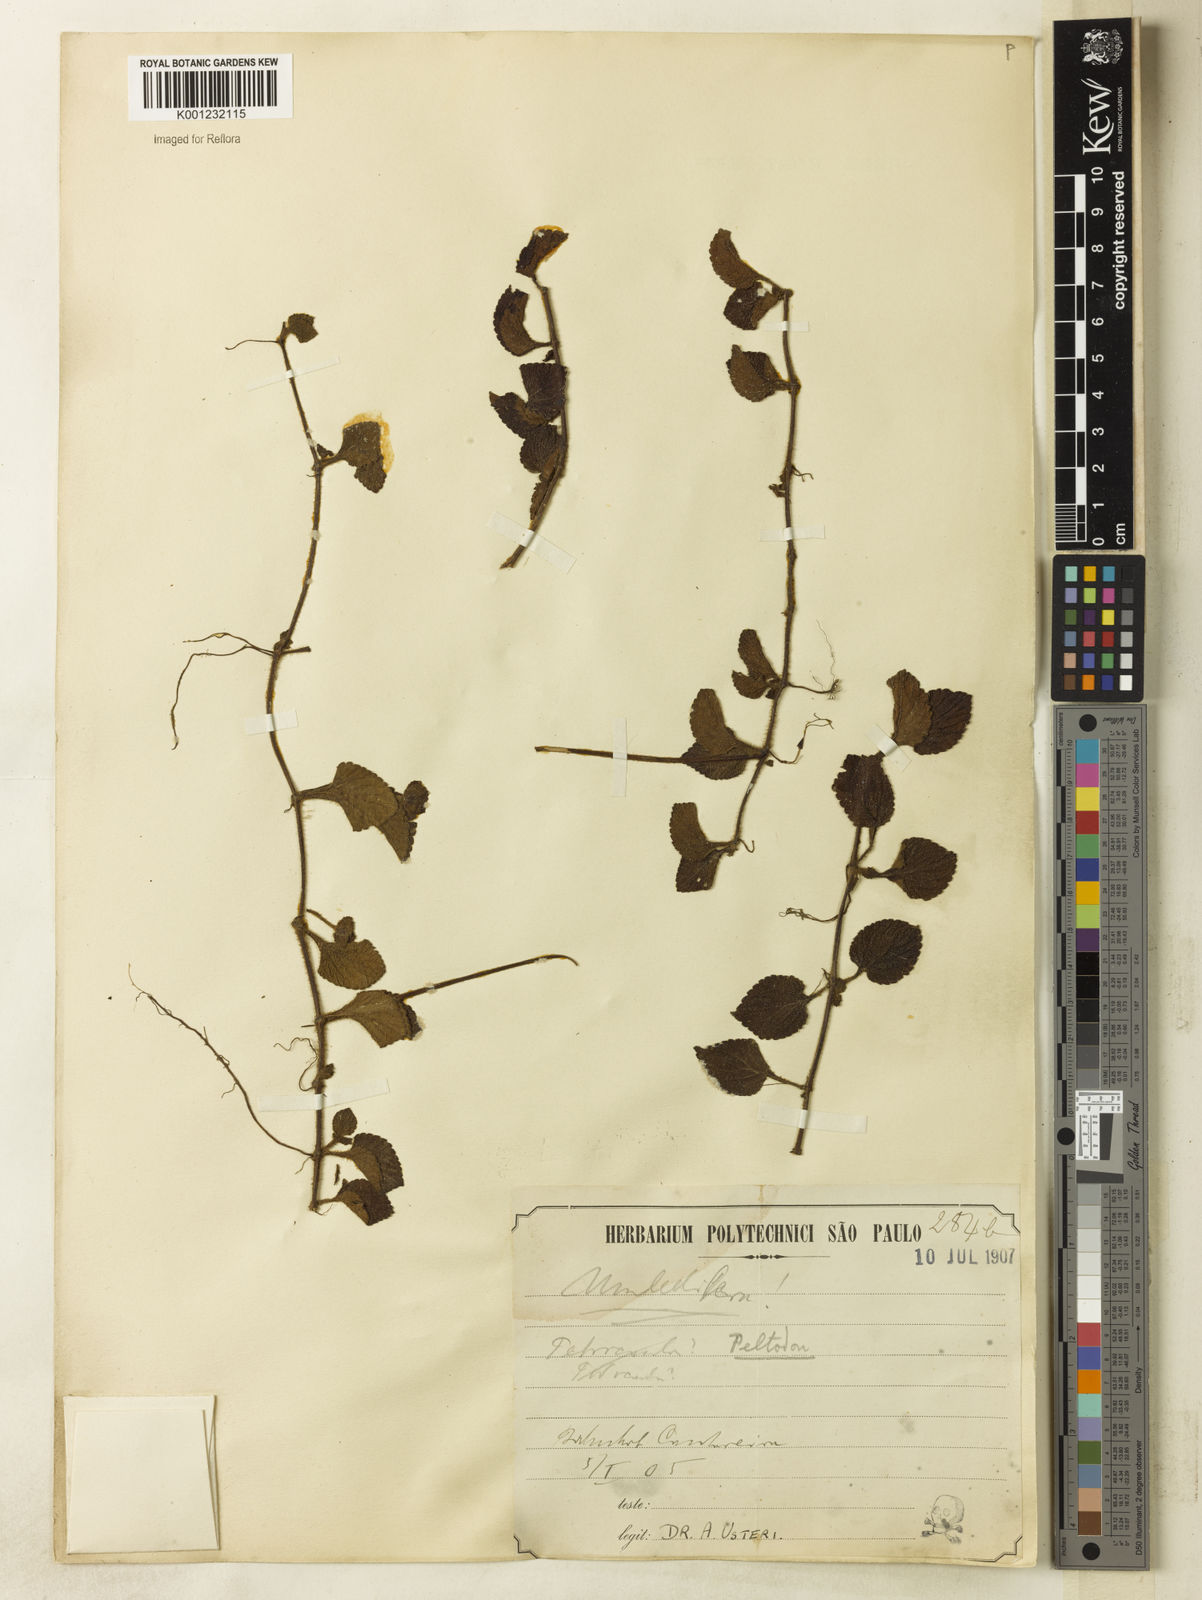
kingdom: Plantae
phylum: Tracheophyta
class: Magnoliopsida
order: Lamiales
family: Lamiaceae
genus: Hyptis
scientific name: Hyptis radicans
